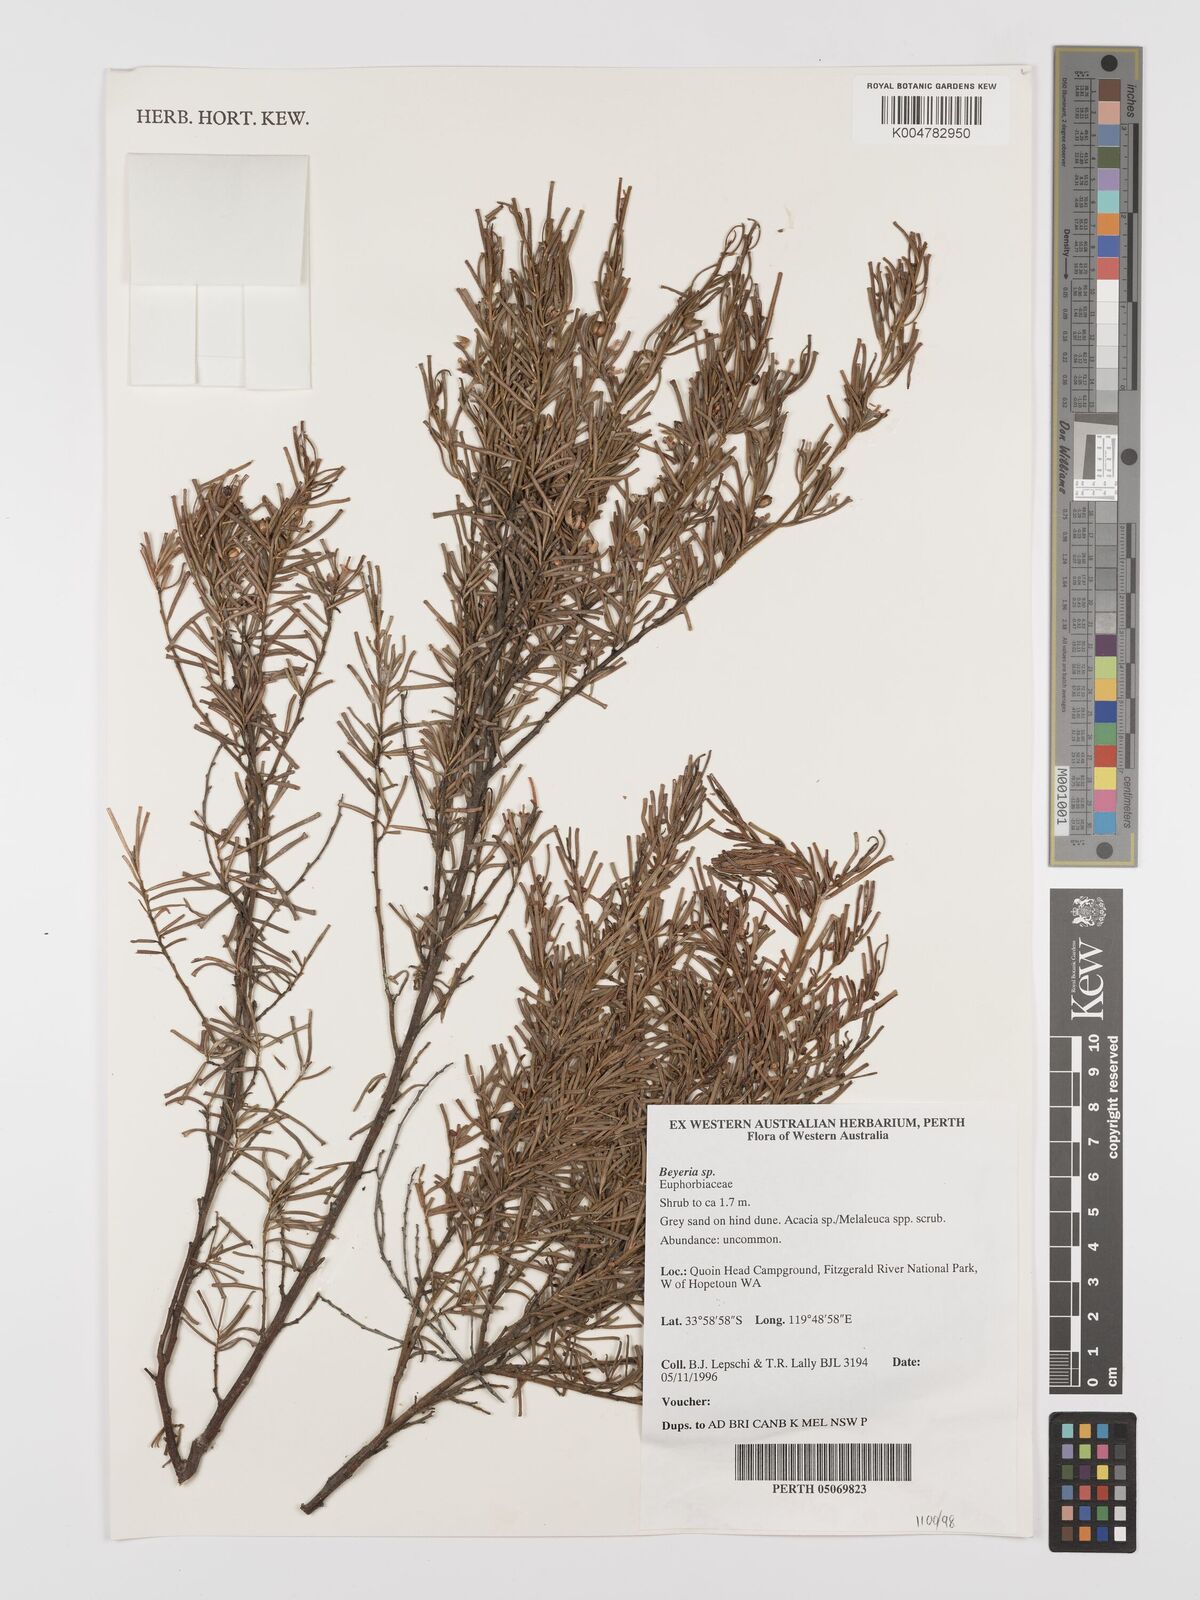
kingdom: Plantae
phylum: Tracheophyta
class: Magnoliopsida
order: Malpighiales
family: Euphorbiaceae
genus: Beyeria
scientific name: Beyeria
